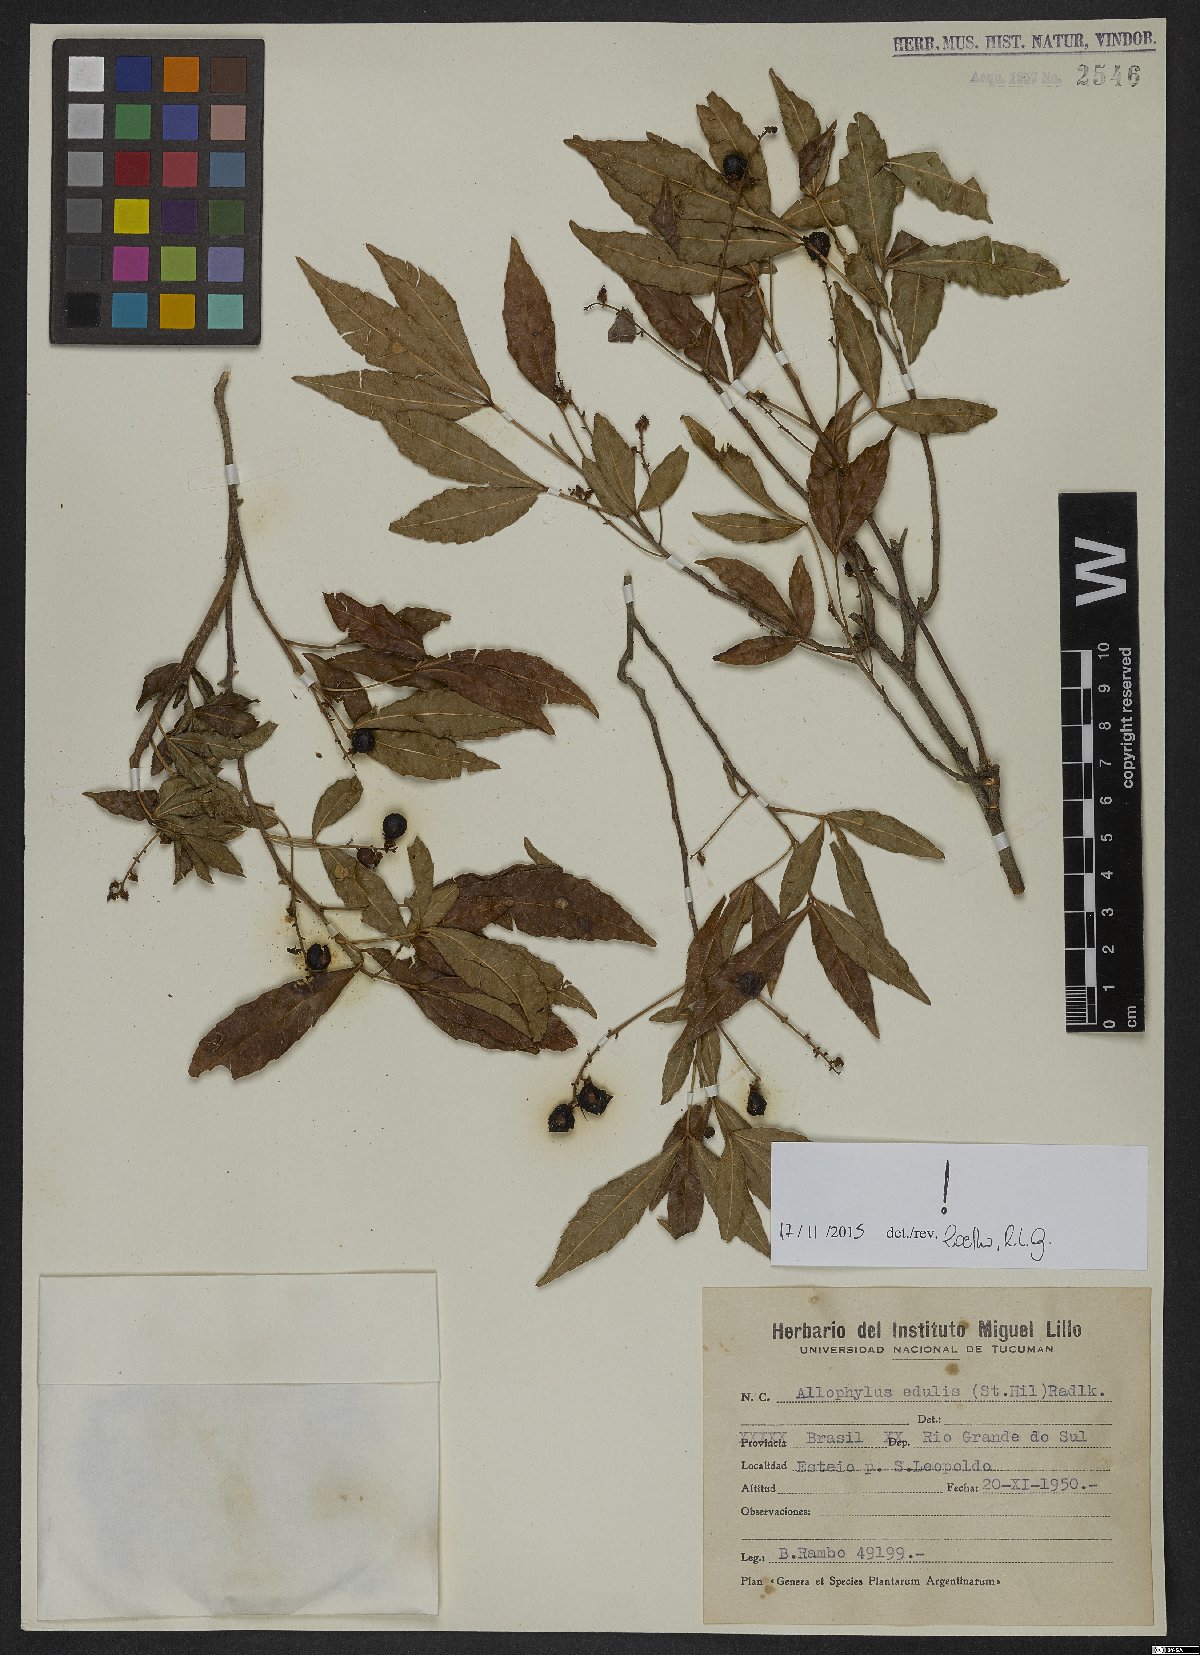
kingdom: Plantae
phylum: Tracheophyta
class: Magnoliopsida
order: Sapindales
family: Sapindaceae
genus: Allophylus
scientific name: Allophylus edulis
